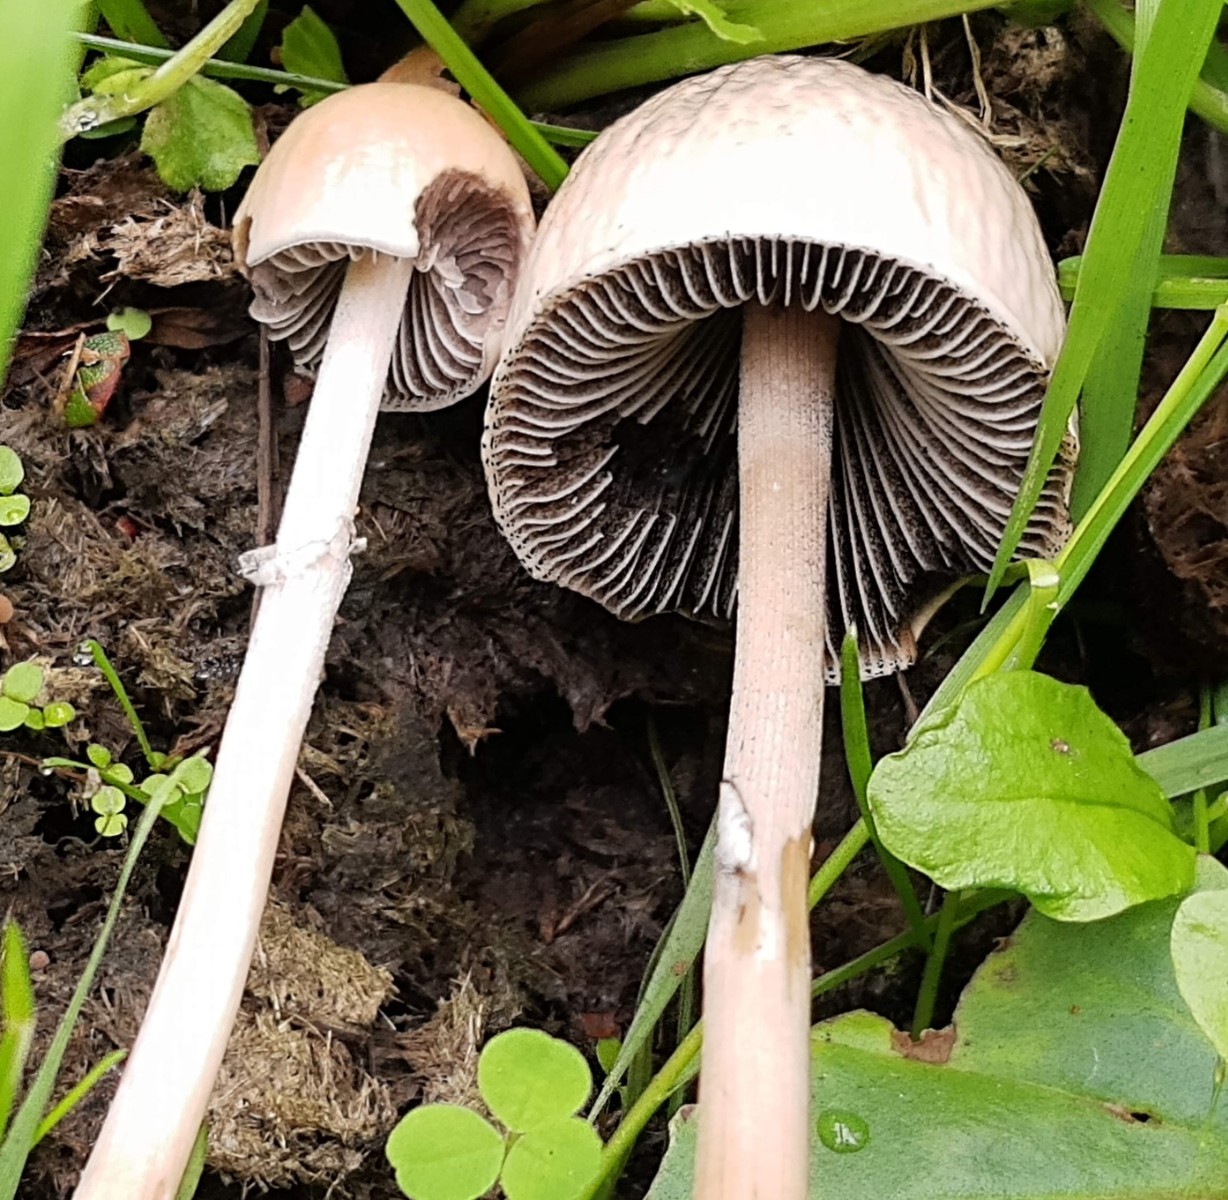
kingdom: Fungi
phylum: Basidiomycota
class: Agaricomycetes
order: Agaricales
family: Bolbitiaceae
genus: Panaeolus
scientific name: Panaeolus semiovatus
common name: ring-glanshat
